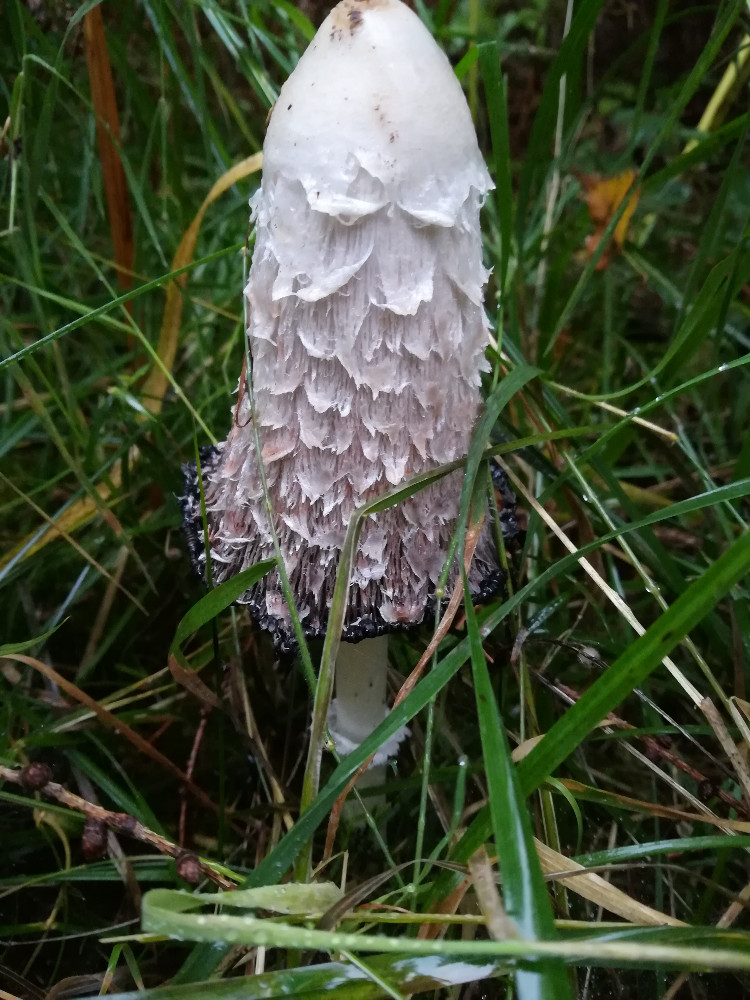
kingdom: Fungi
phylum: Basidiomycota
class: Agaricomycetes
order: Agaricales
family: Agaricaceae
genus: Coprinus
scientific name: Coprinus comatus
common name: stor parykhat
